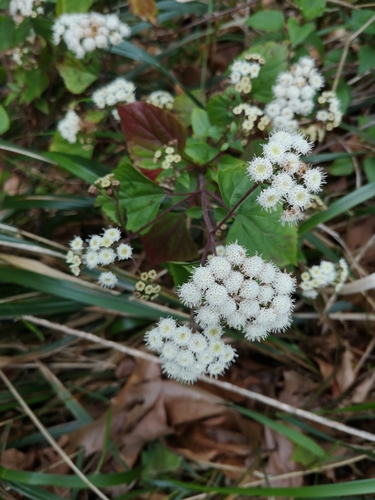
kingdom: Plantae
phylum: Tracheophyta
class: Magnoliopsida
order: Asterales
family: Asteraceae
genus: Ageratina
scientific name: Ageratina adenophora
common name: Sticky snakeroot
